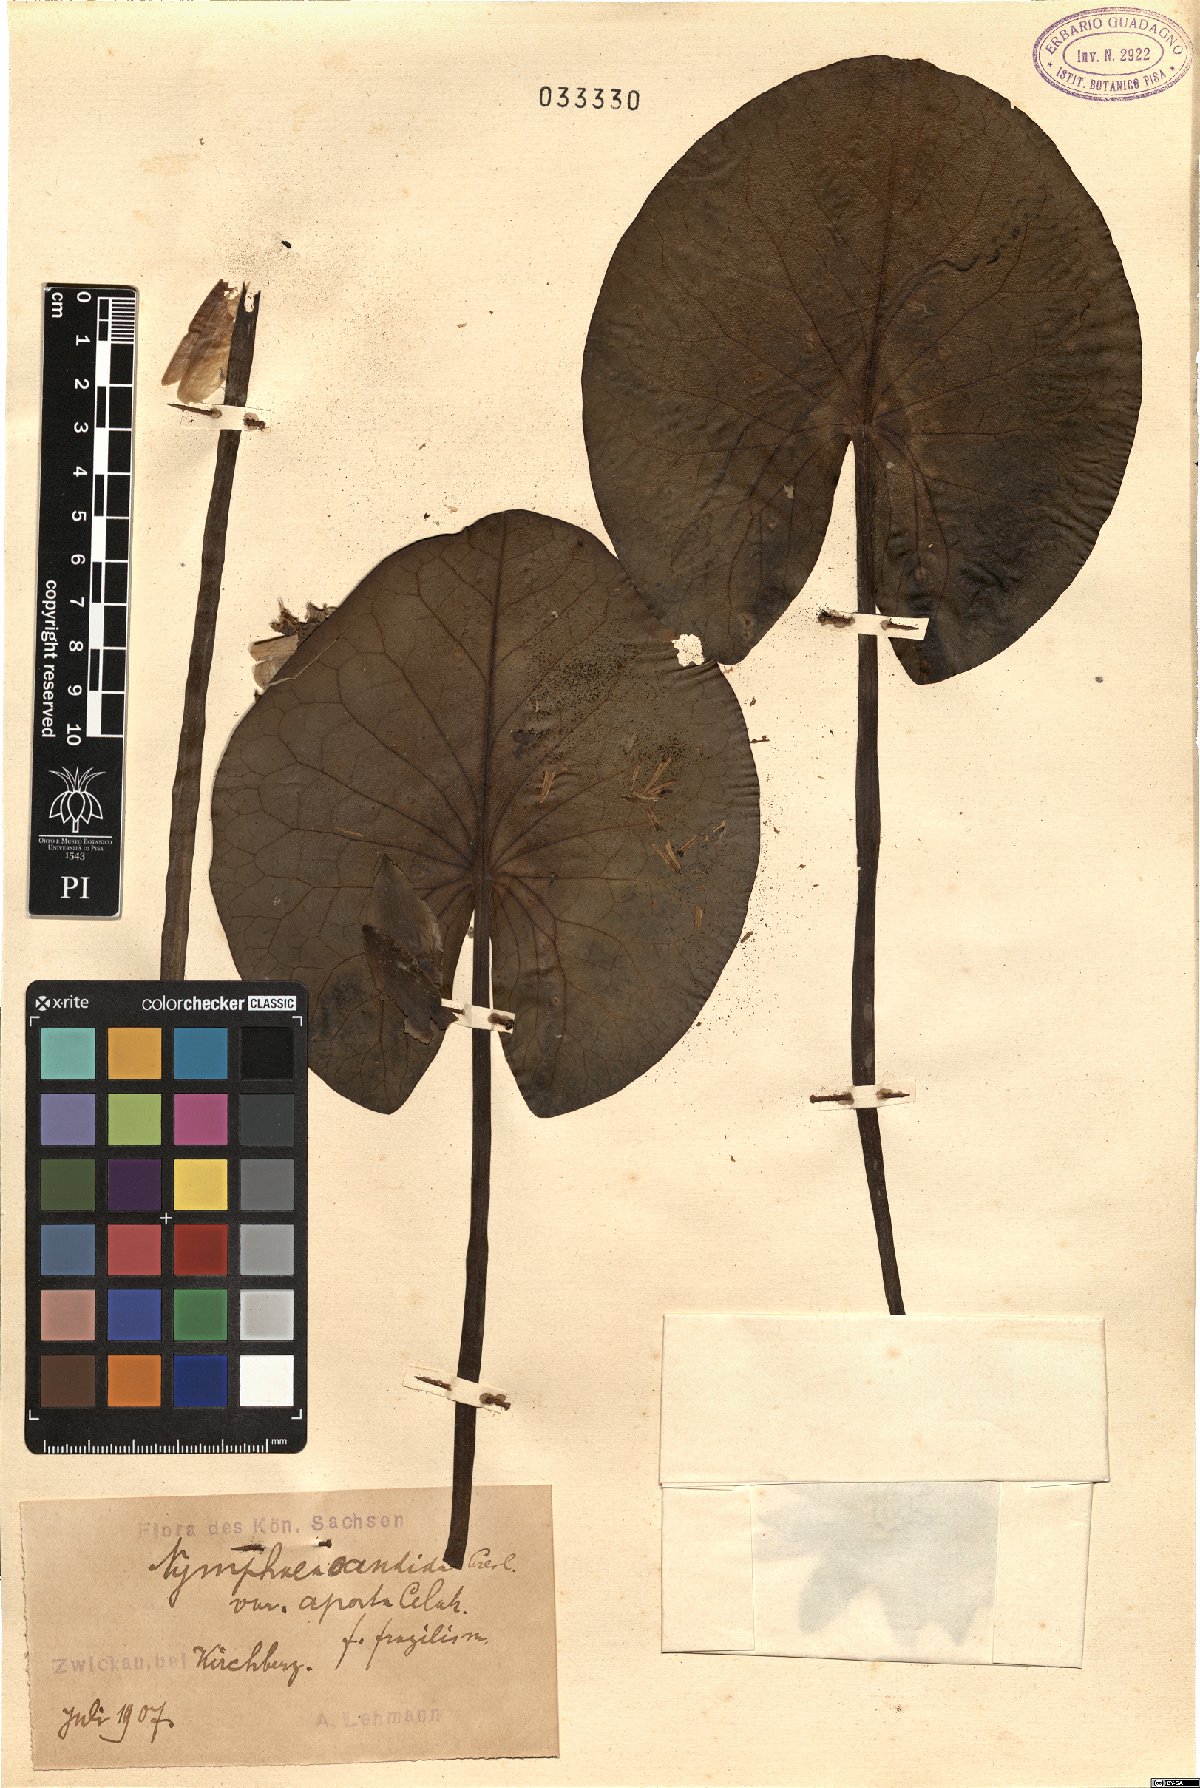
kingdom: Plantae
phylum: Tracheophyta
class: Magnoliopsida
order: Nymphaeales
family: Nymphaeaceae
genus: Nymphaea
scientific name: Nymphaea candida
